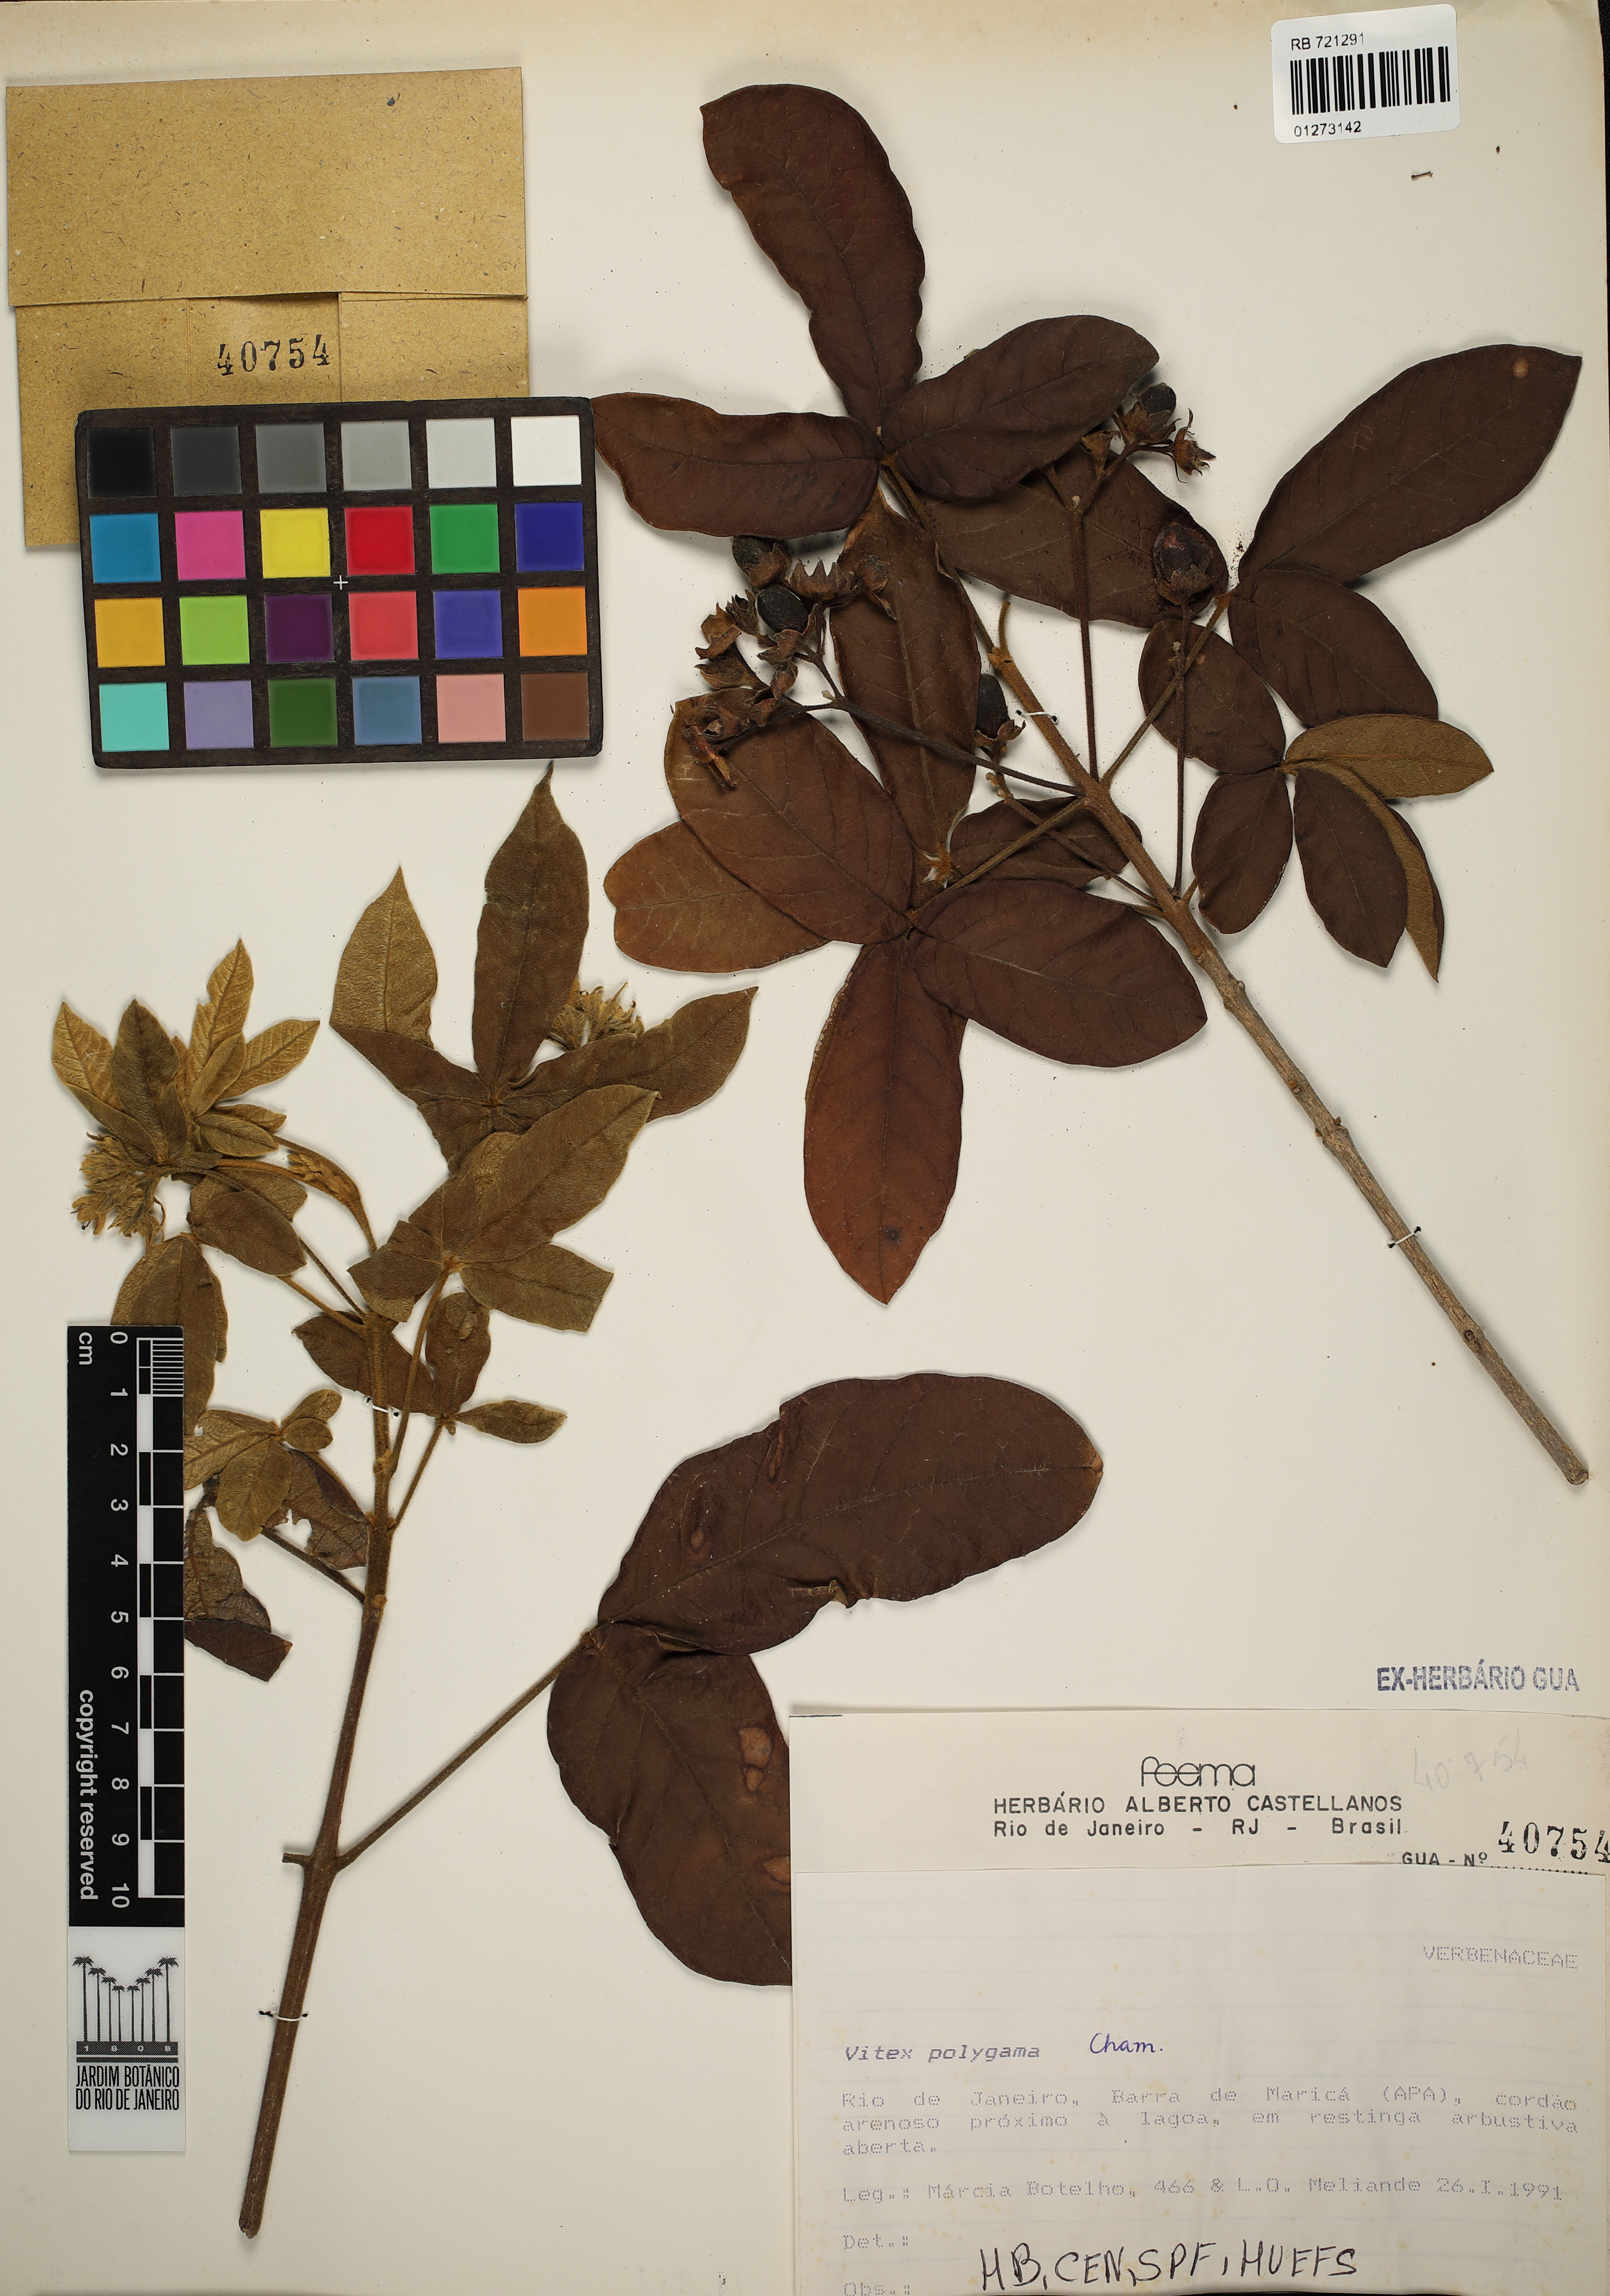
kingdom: Plantae
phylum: Tracheophyta
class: Magnoliopsida
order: Lamiales
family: Lamiaceae
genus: Vitex
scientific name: Vitex polygama
